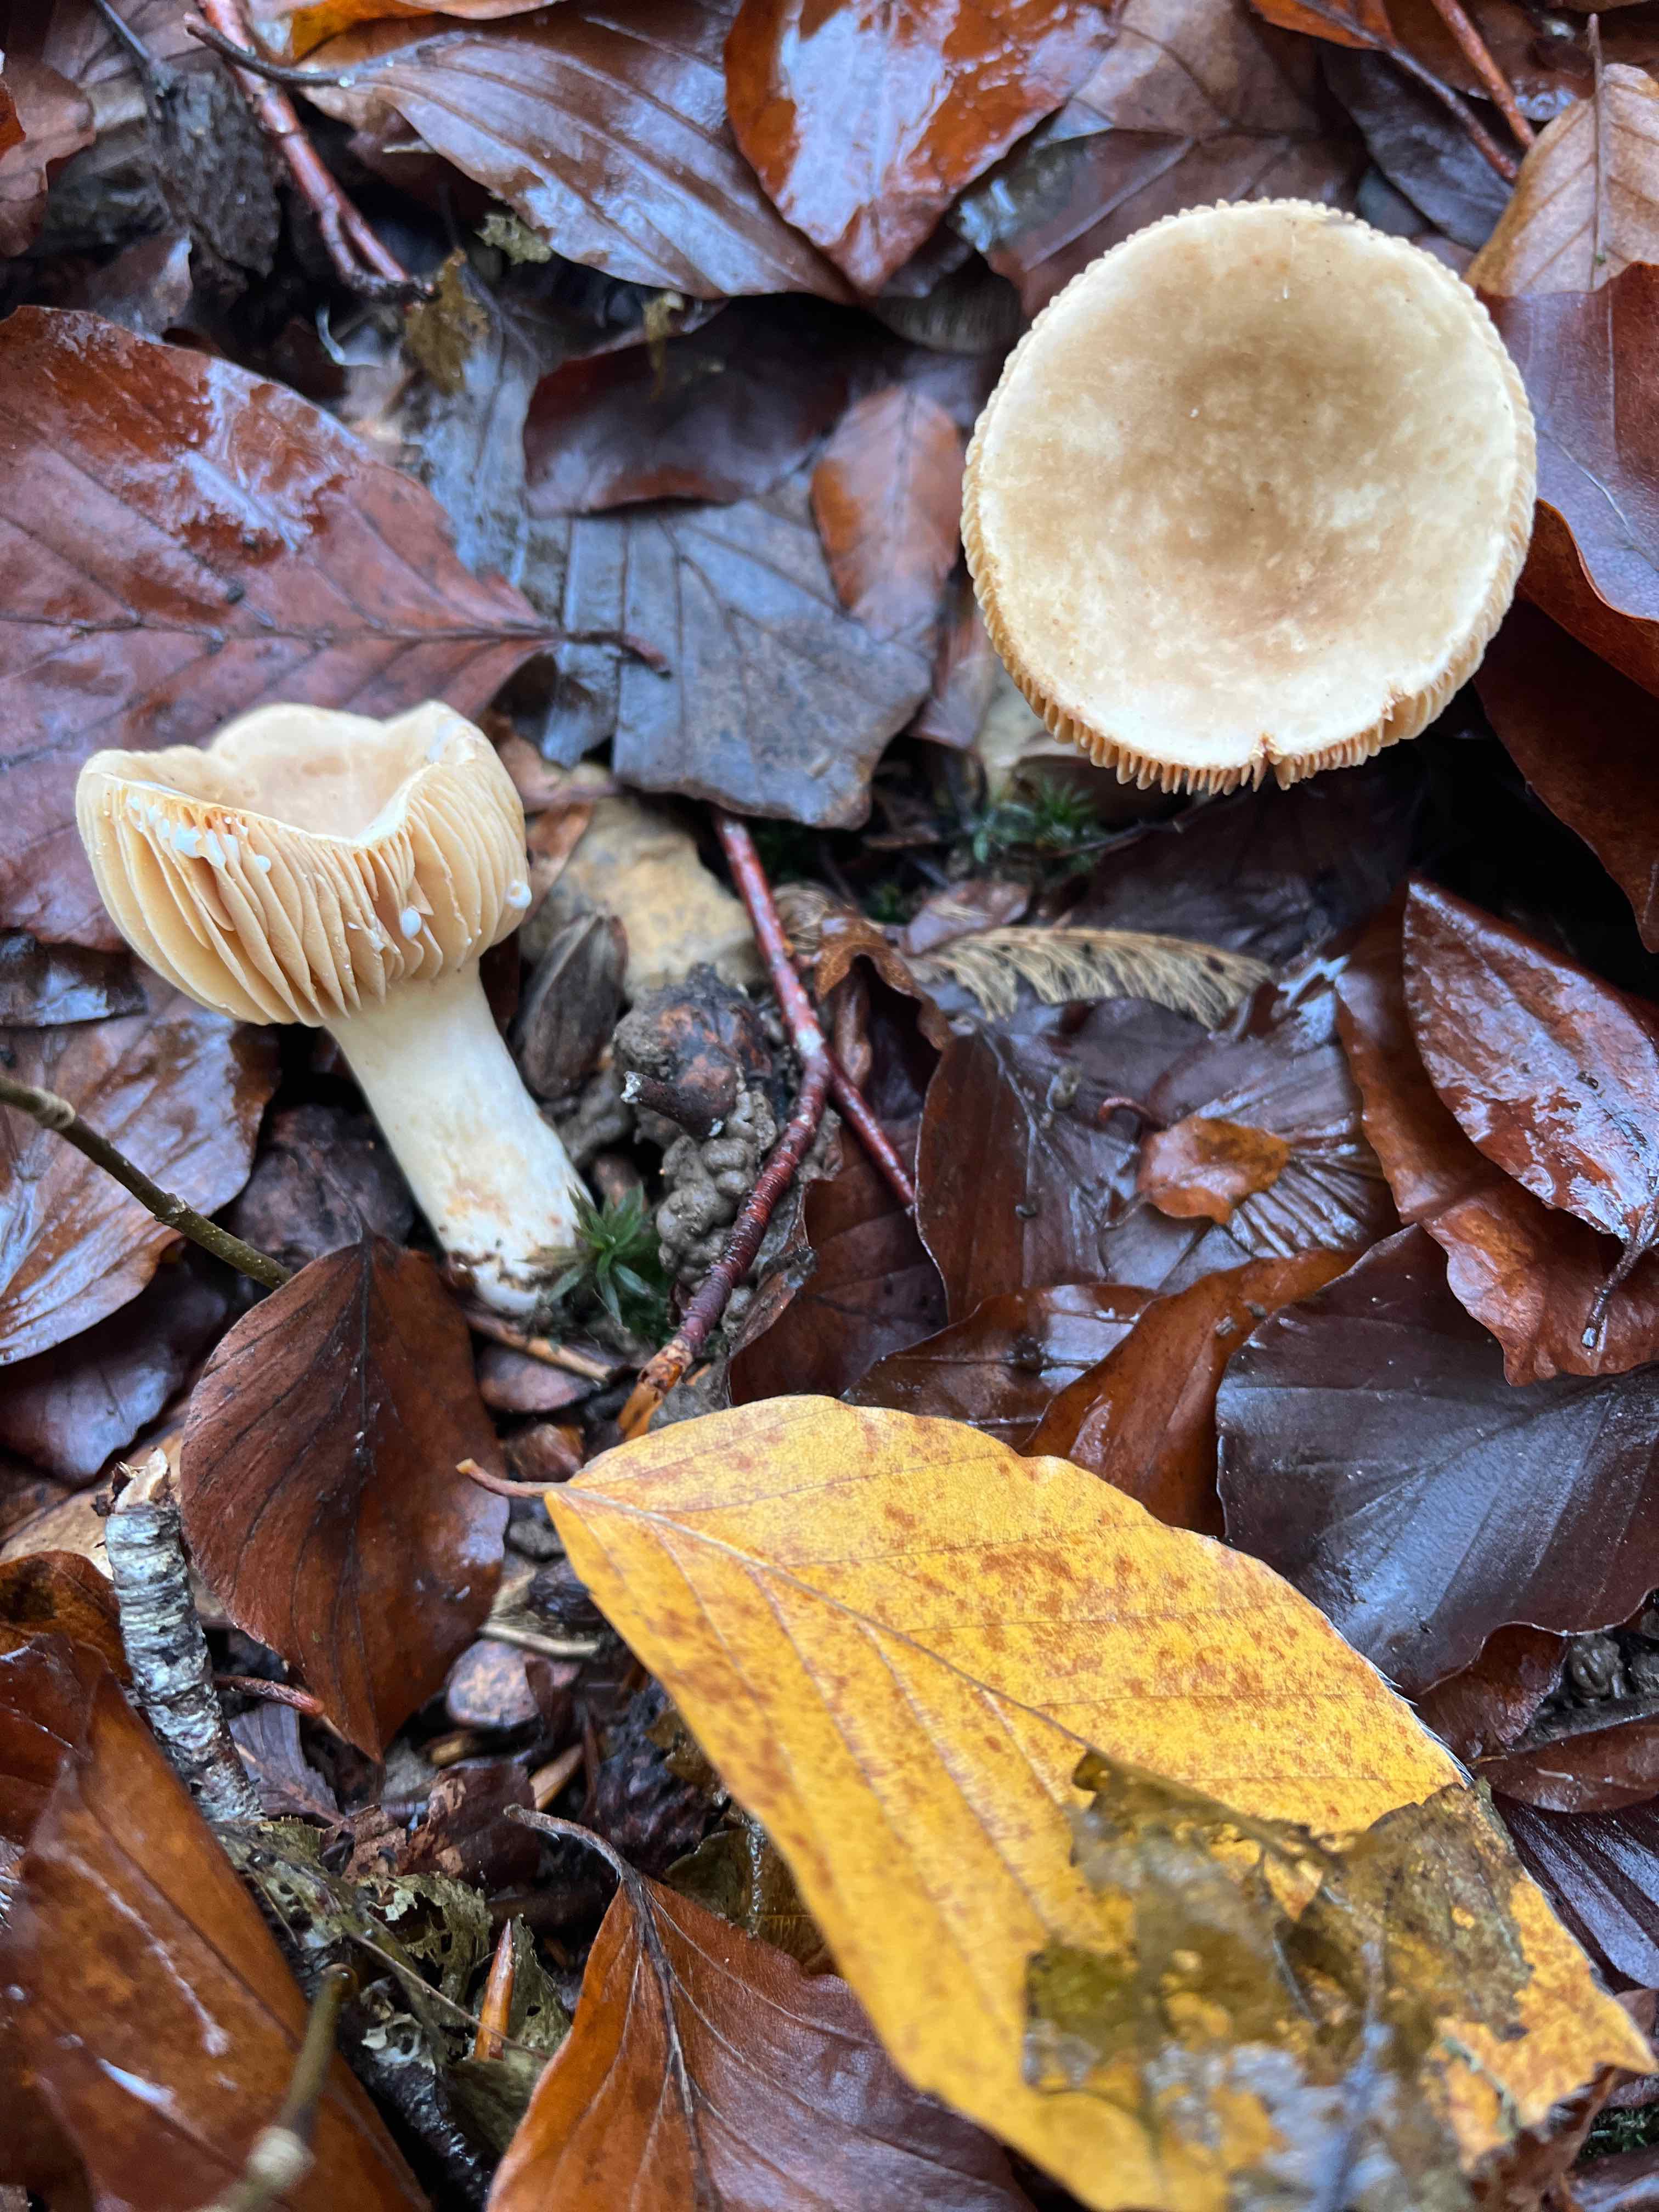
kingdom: Fungi
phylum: Basidiomycota
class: Agaricomycetes
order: Russulales
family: Russulaceae
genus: Lactarius
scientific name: Lactarius
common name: mælkehat
